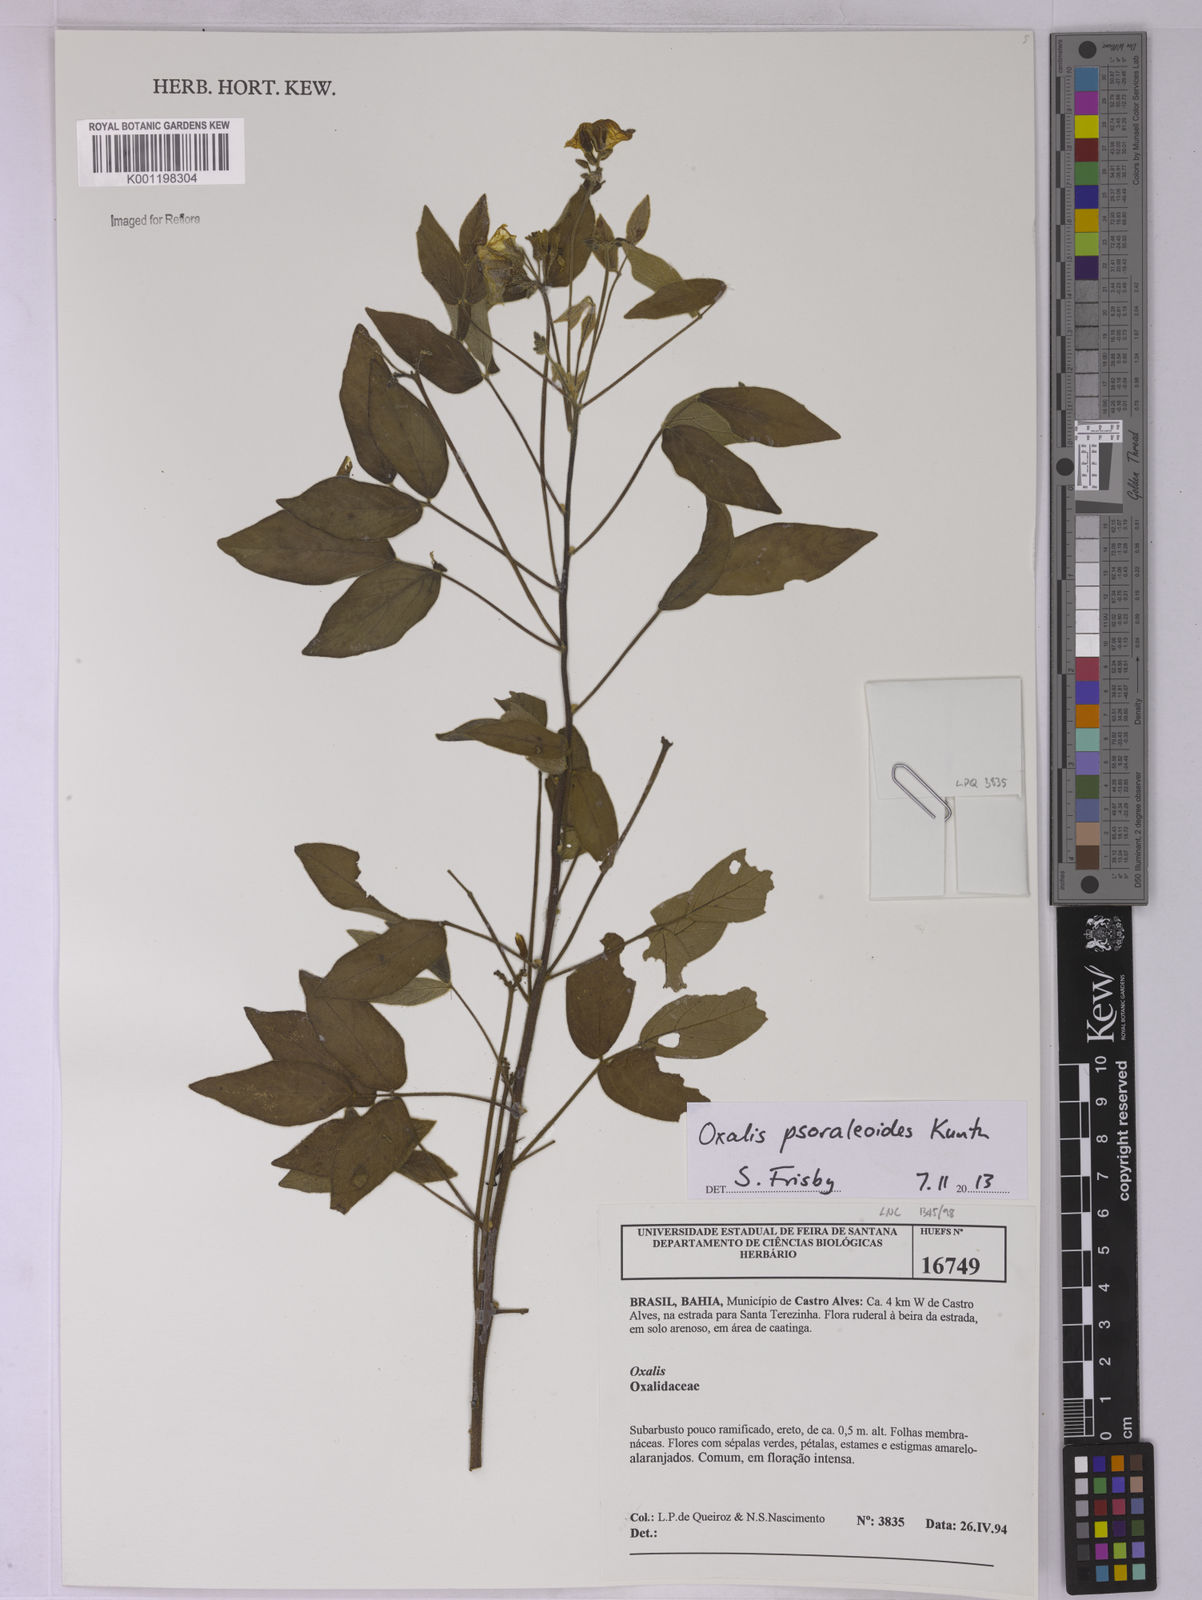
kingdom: Plantae
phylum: Tracheophyta
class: Magnoliopsida
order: Oxalidales
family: Oxalidaceae
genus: Oxalis
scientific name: Oxalis psoraleoides
